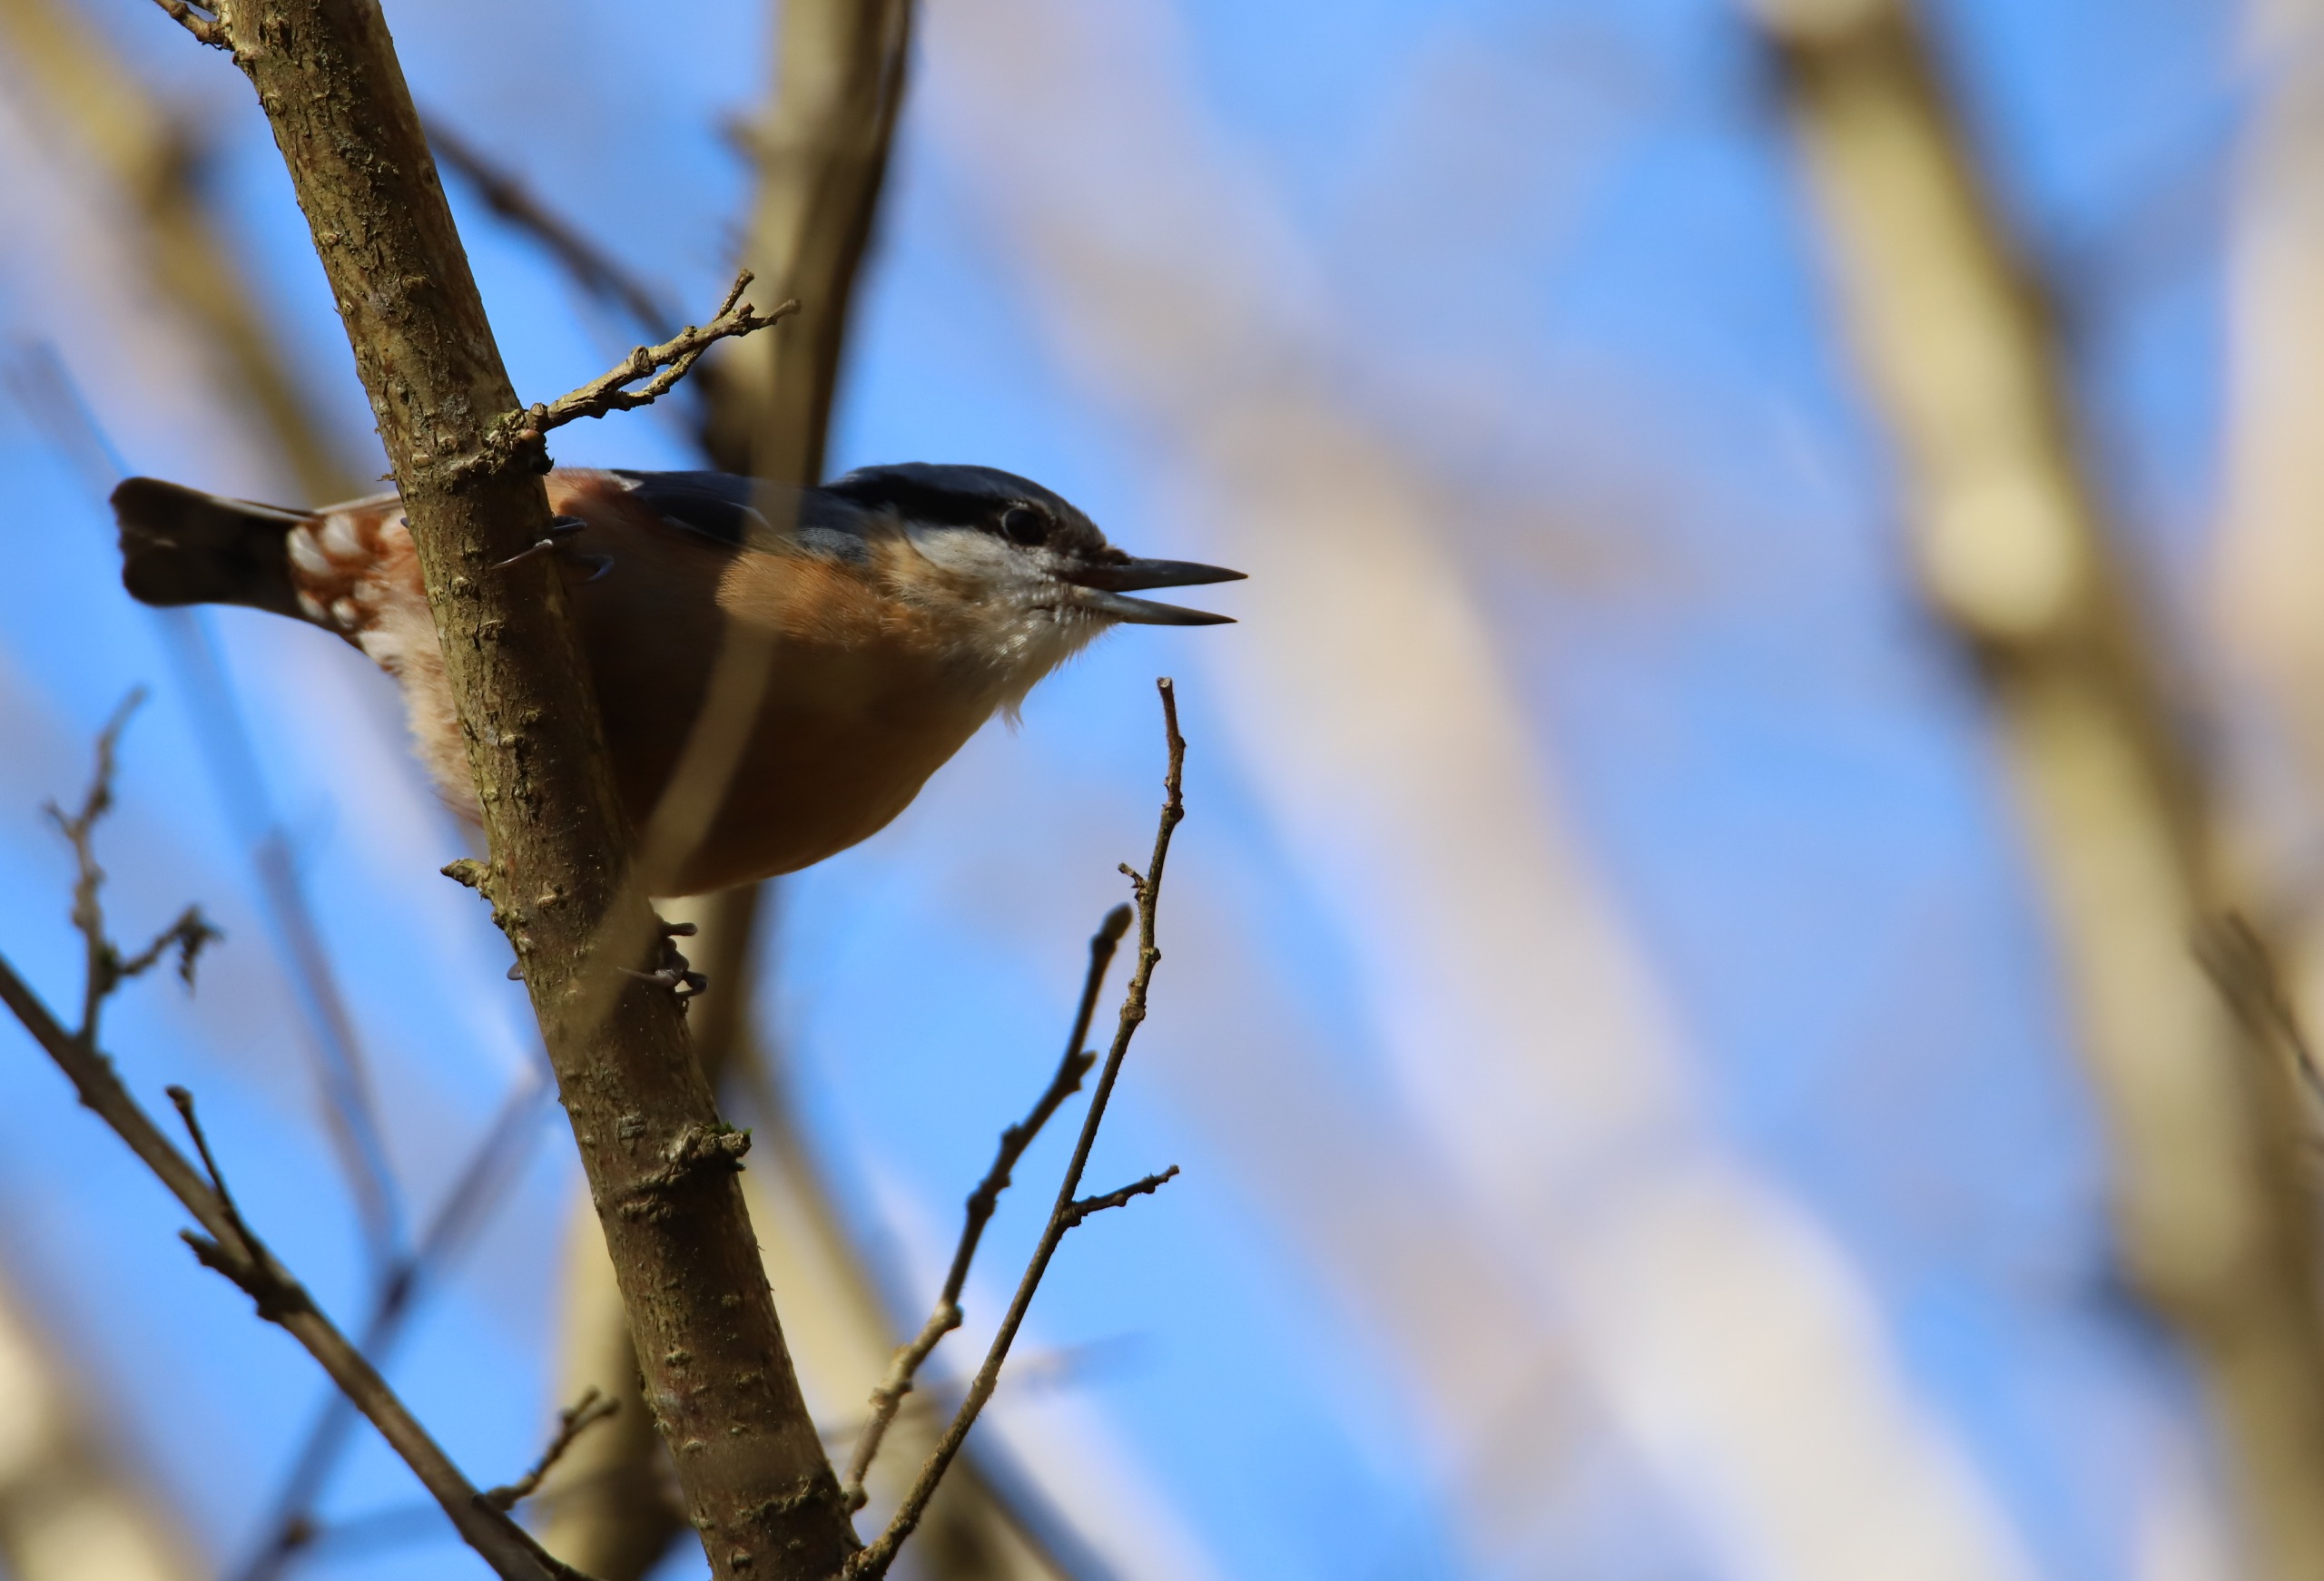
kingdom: Animalia
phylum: Chordata
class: Aves
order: Passeriformes
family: Sittidae
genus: Sitta
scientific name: Sitta europaea
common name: Mørkbuget spætmejse
